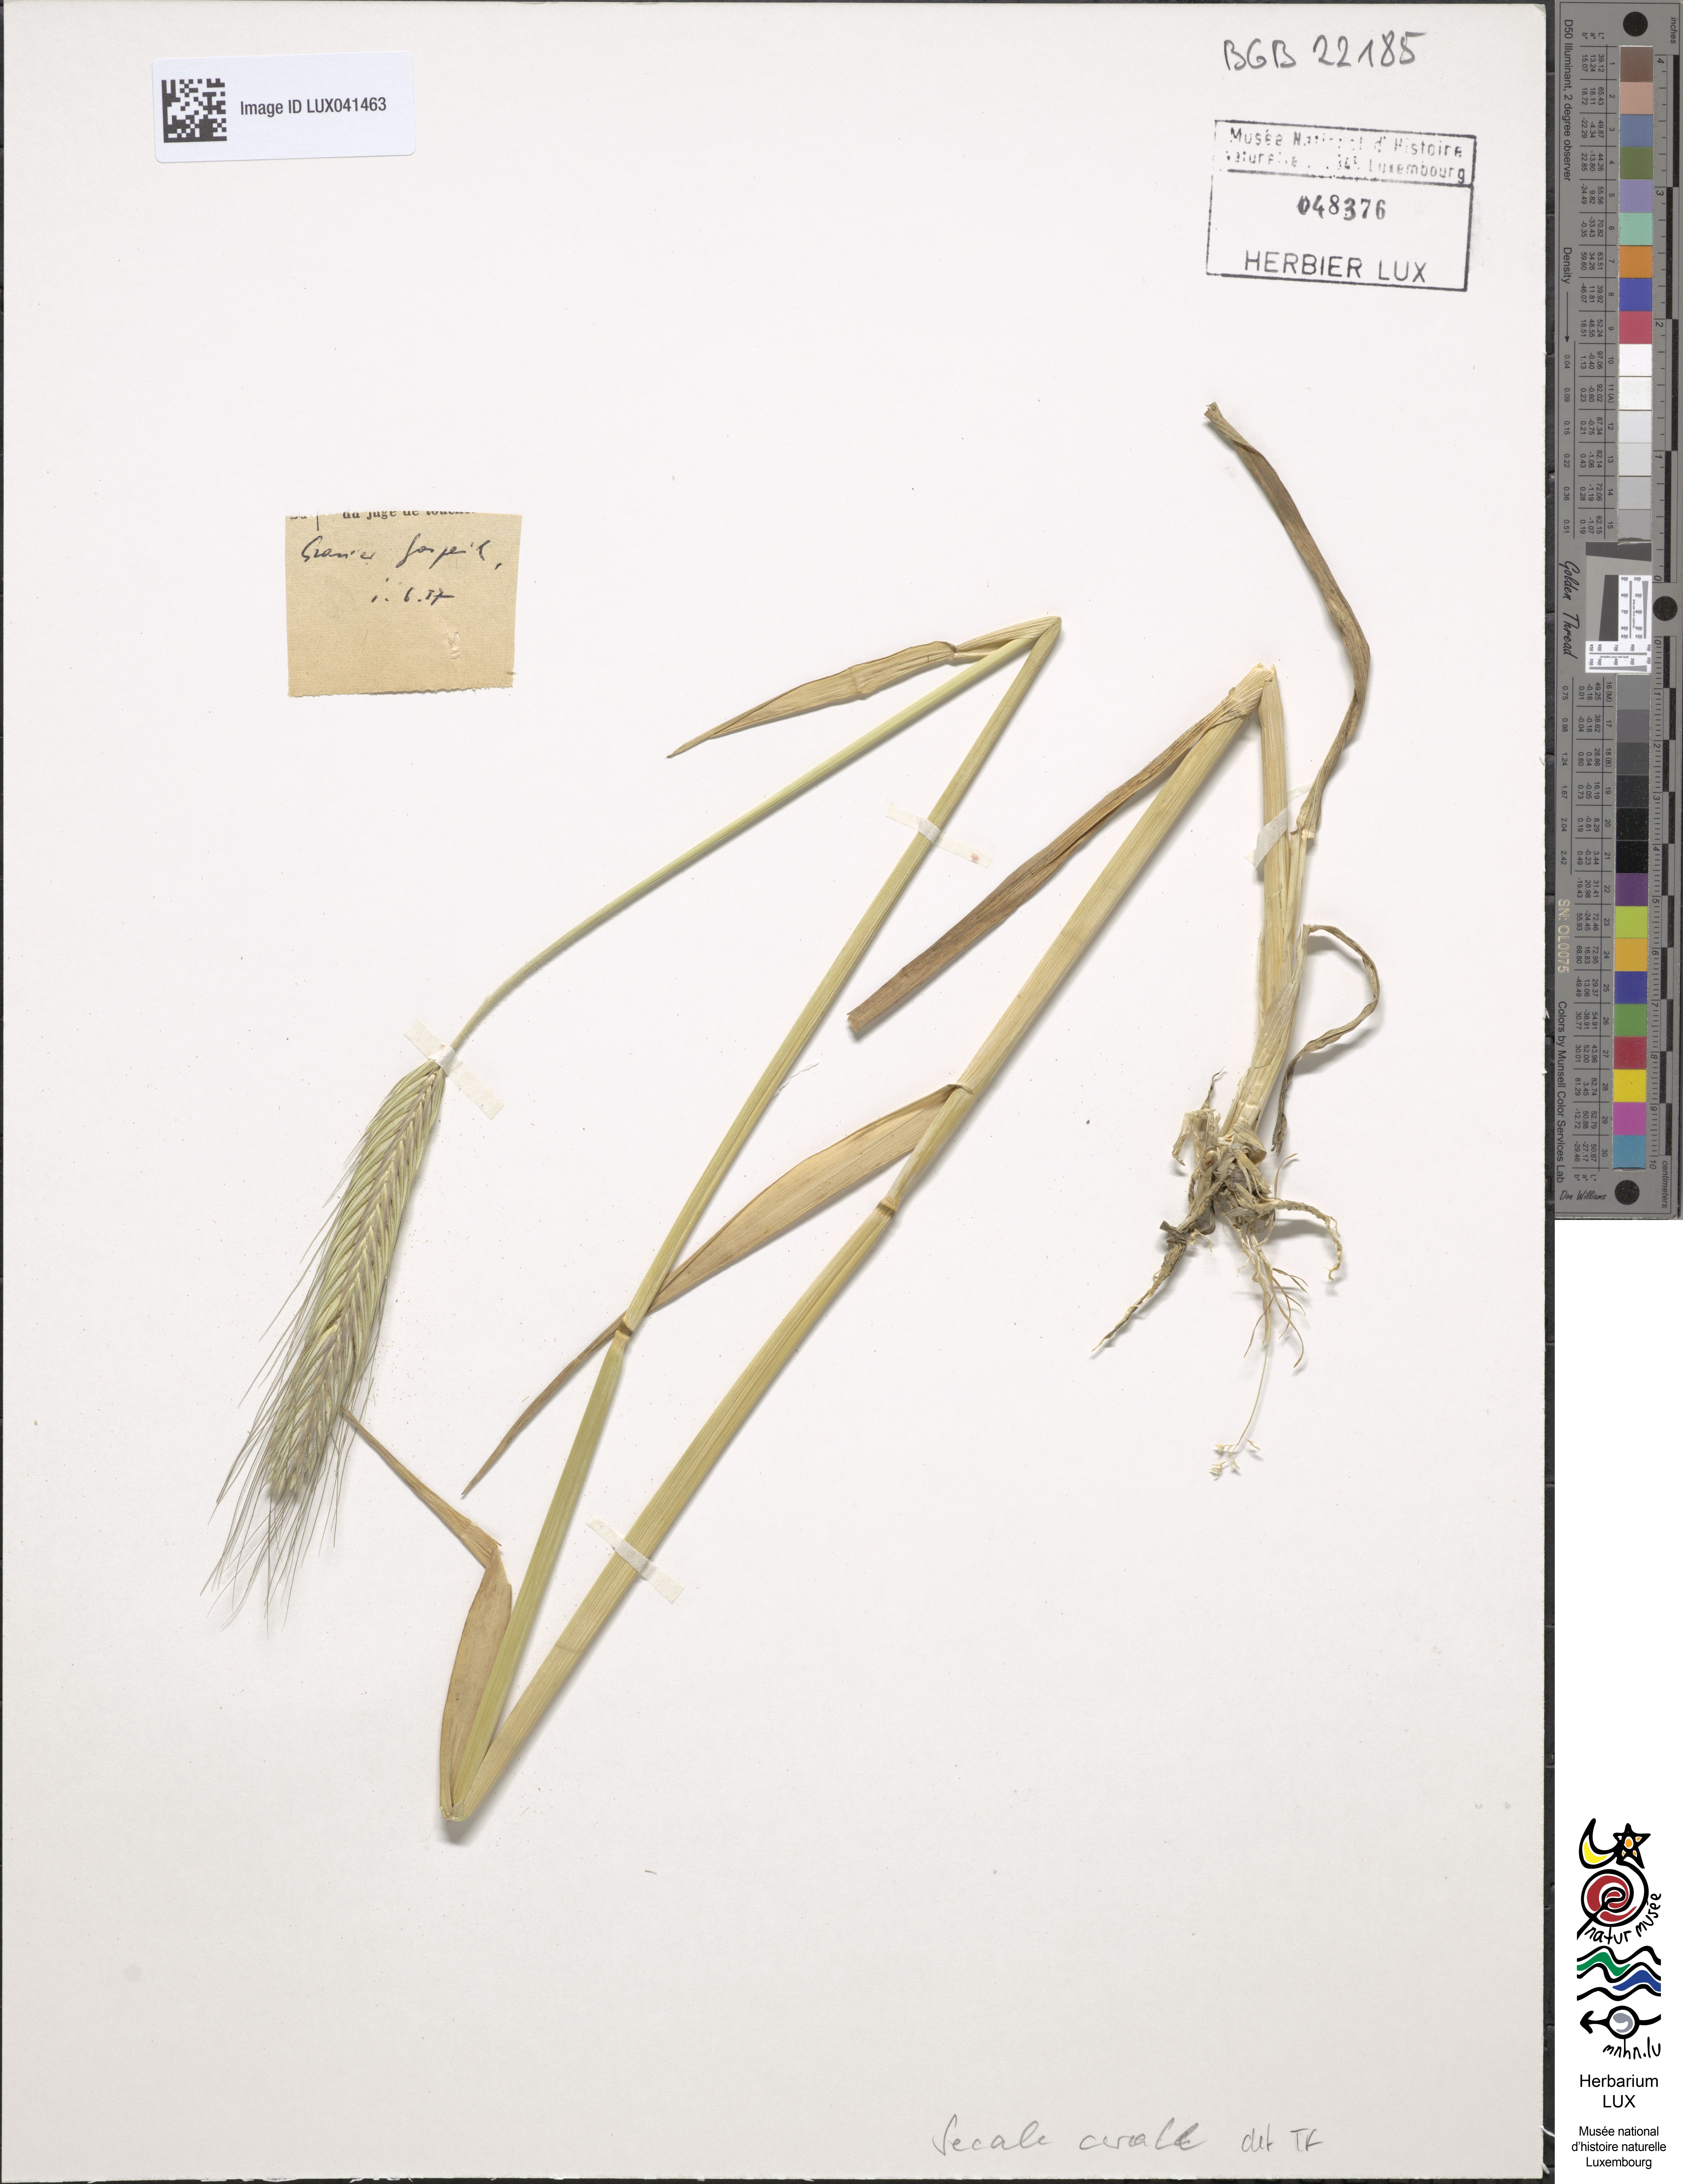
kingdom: Plantae
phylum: Tracheophyta
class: Liliopsida
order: Poales
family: Poaceae
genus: Secale
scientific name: Secale cereale
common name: Rye
